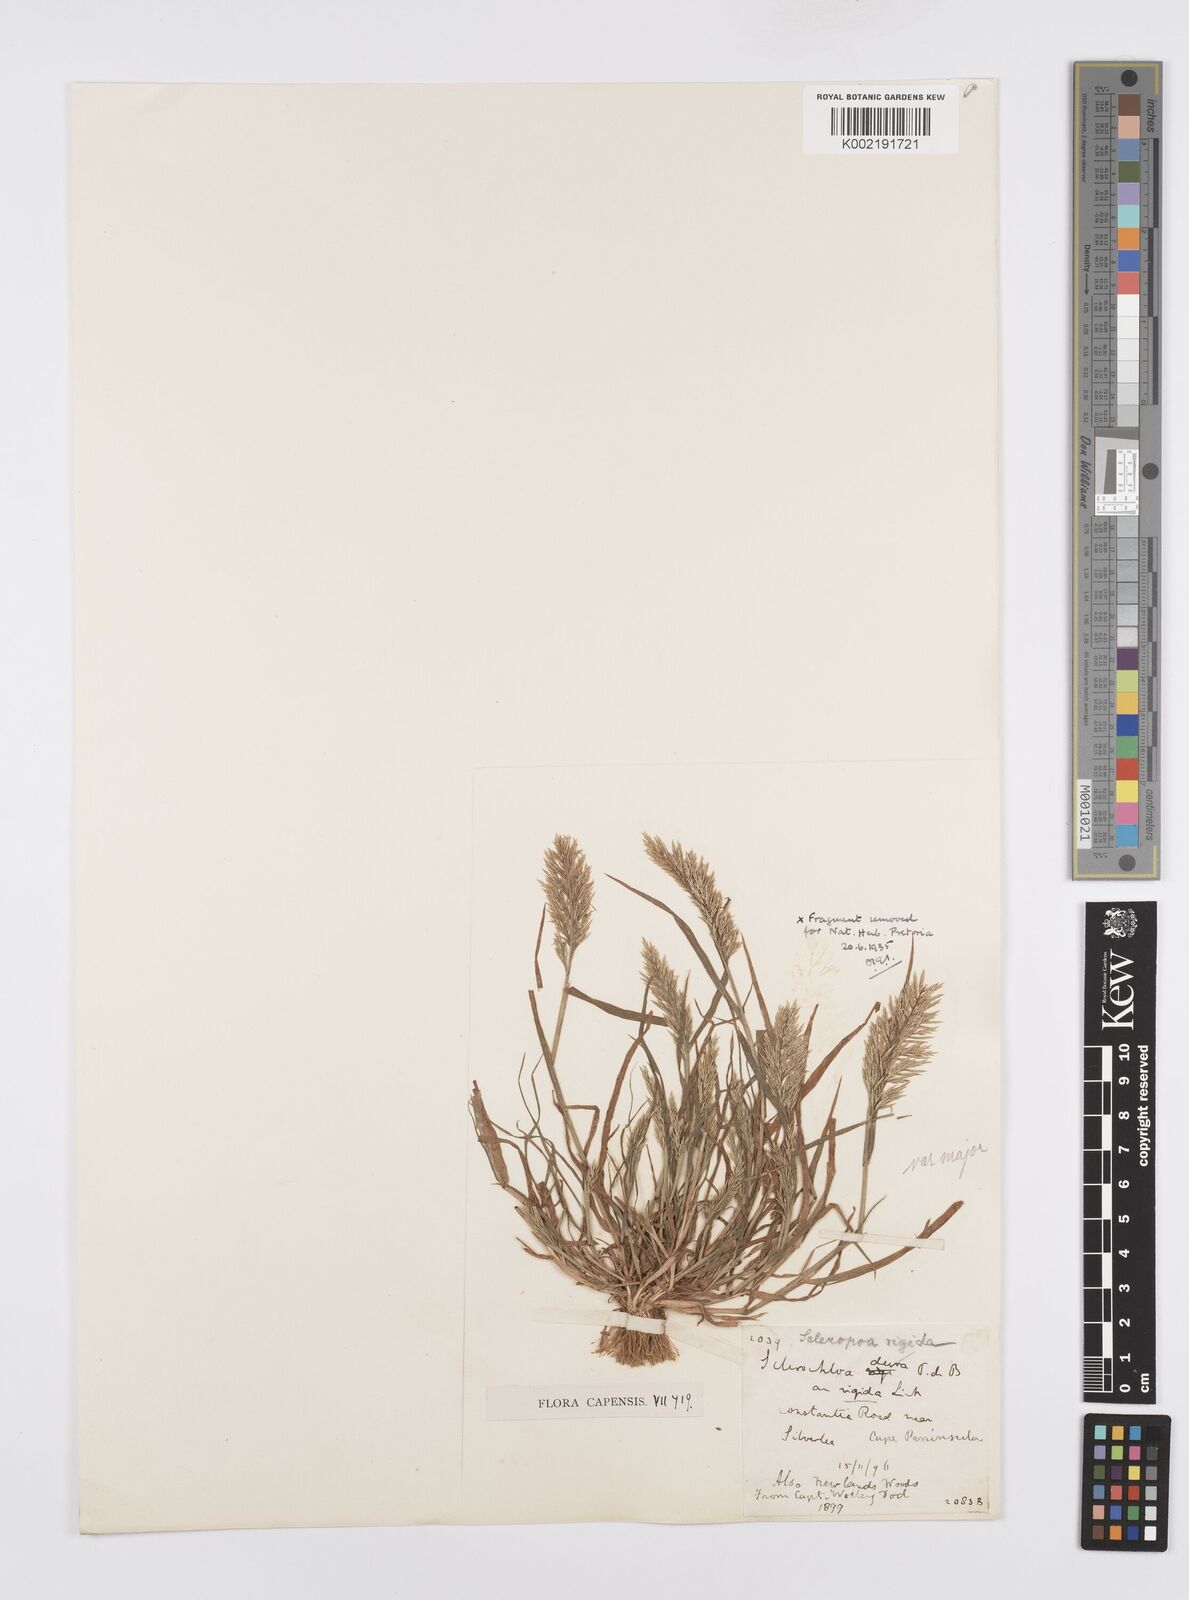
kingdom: Plantae
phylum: Tracheophyta
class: Liliopsida
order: Poales
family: Poaceae
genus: Catapodium
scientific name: Catapodium rigidum
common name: Fern-grass
